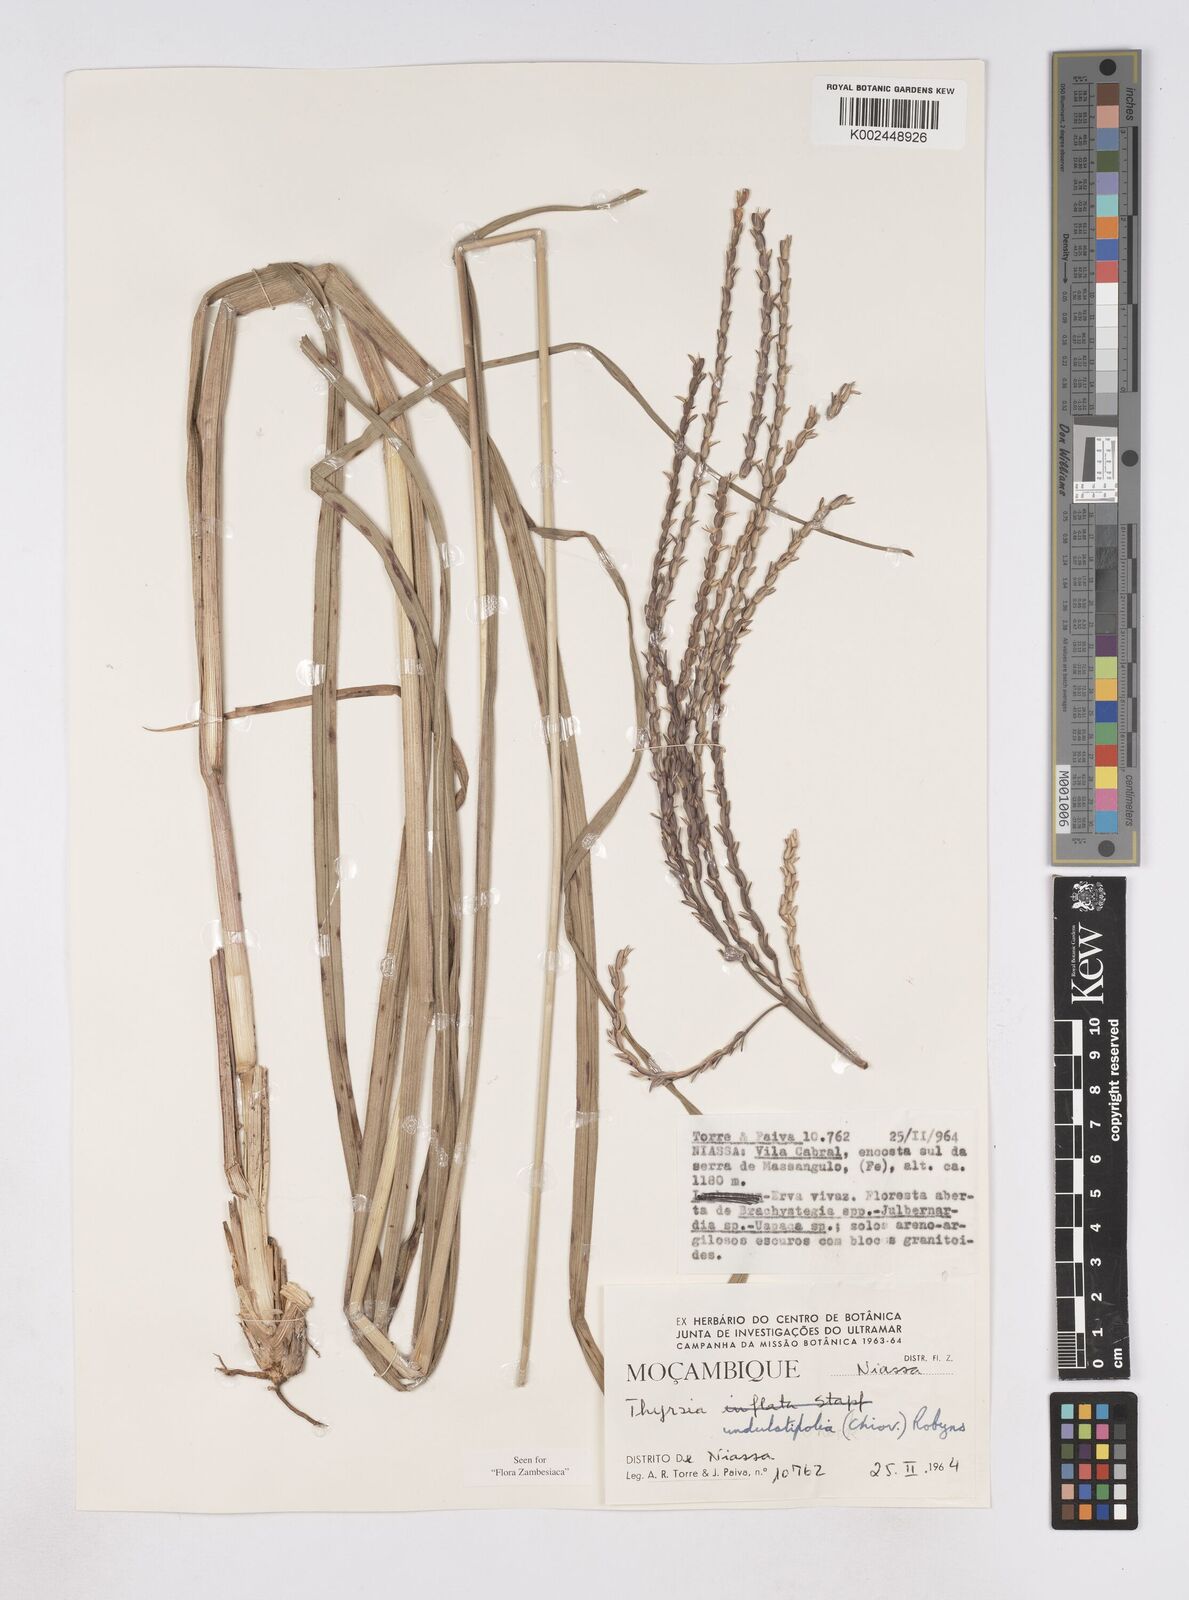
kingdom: Plantae
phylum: Tracheophyta
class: Liliopsida
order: Poales
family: Poaceae
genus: Thyrsia
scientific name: Thyrsia huillensis
